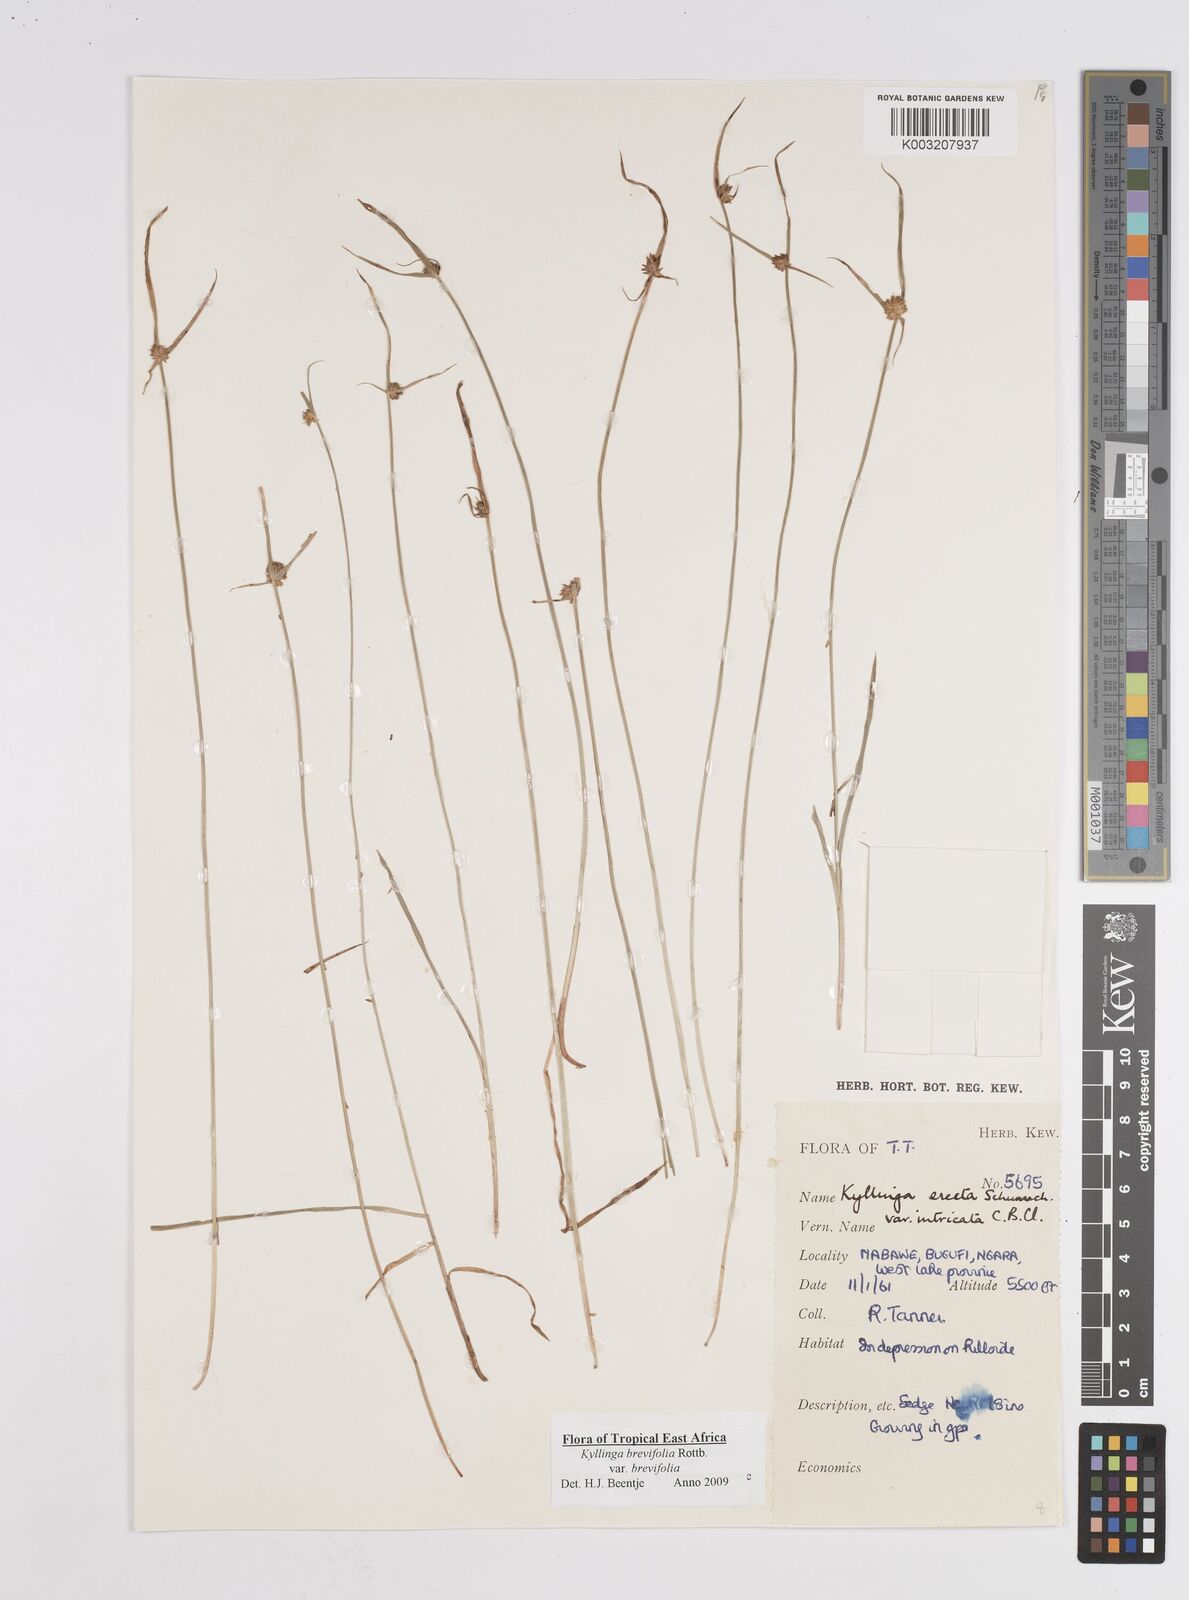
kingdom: Plantae
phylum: Tracheophyta
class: Liliopsida
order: Poales
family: Cyperaceae
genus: Cyperus
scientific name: Cyperus brevifolius
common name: Globe kyllinga
